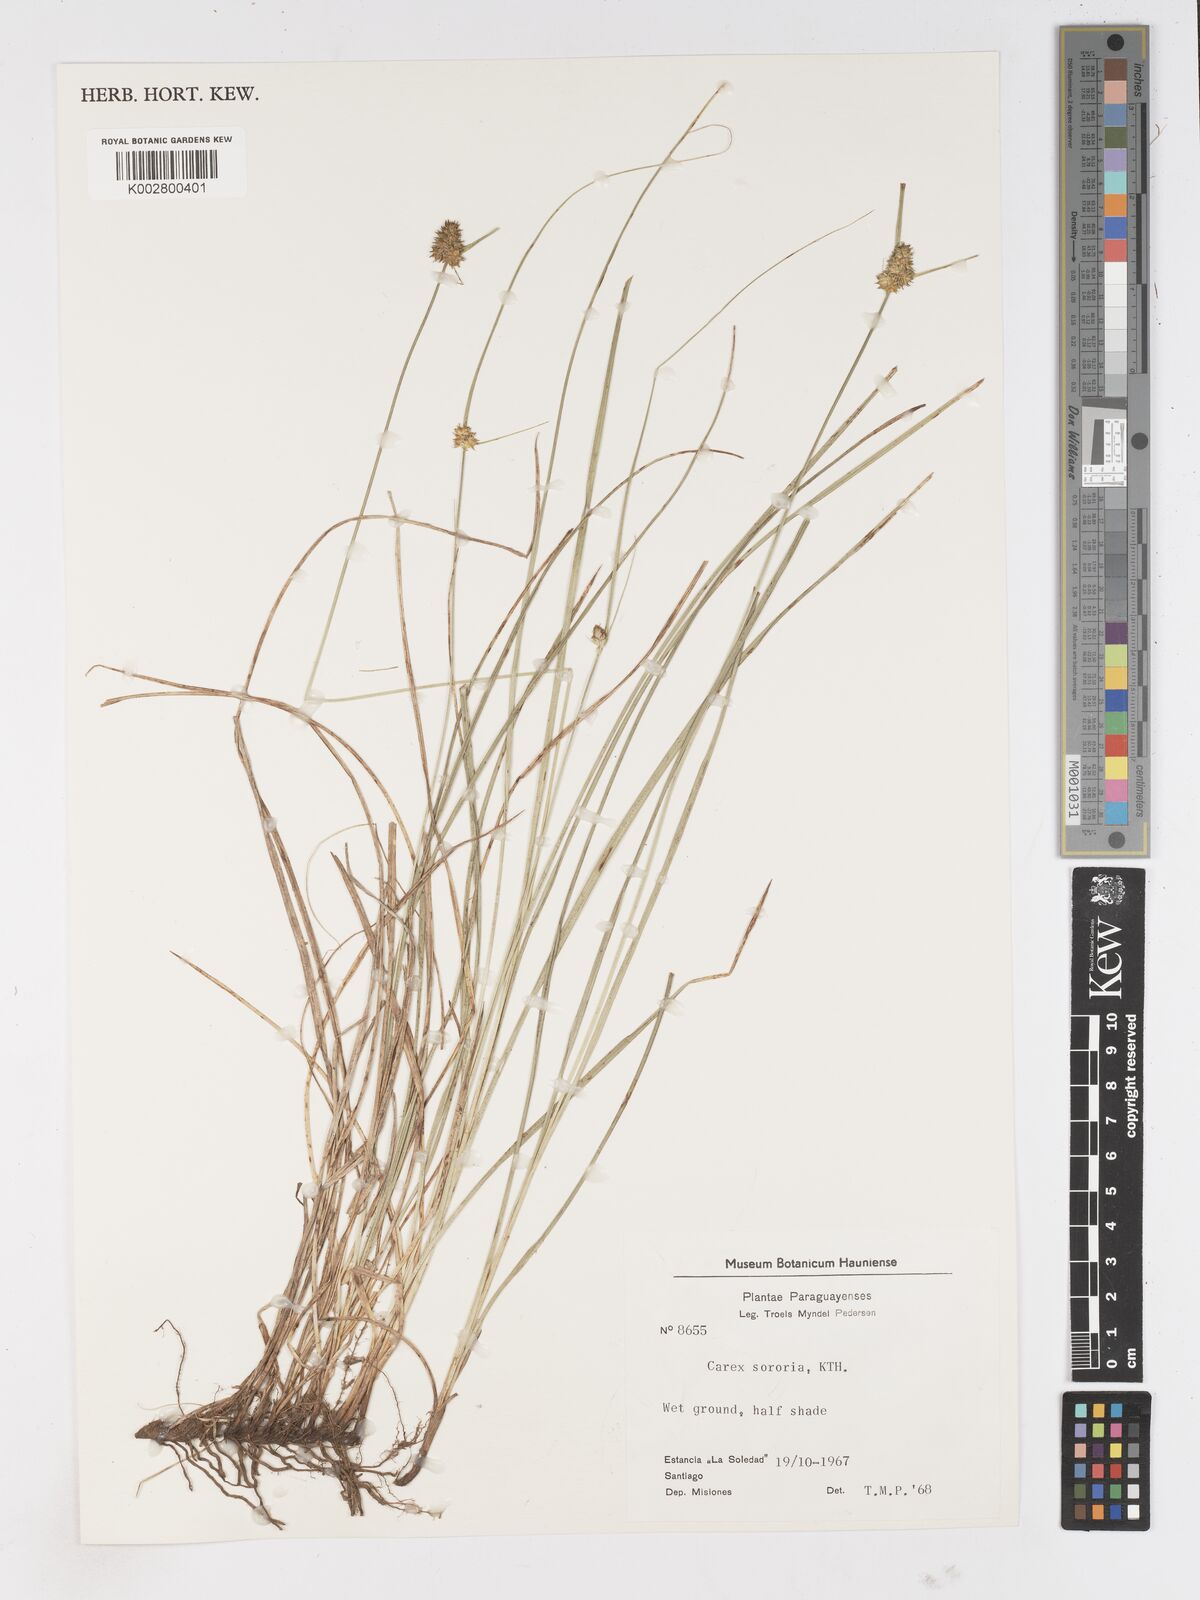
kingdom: Plantae
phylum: Tracheophyta
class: Liliopsida
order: Poales
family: Cyperaceae
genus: Carex
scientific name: Carex sororia
